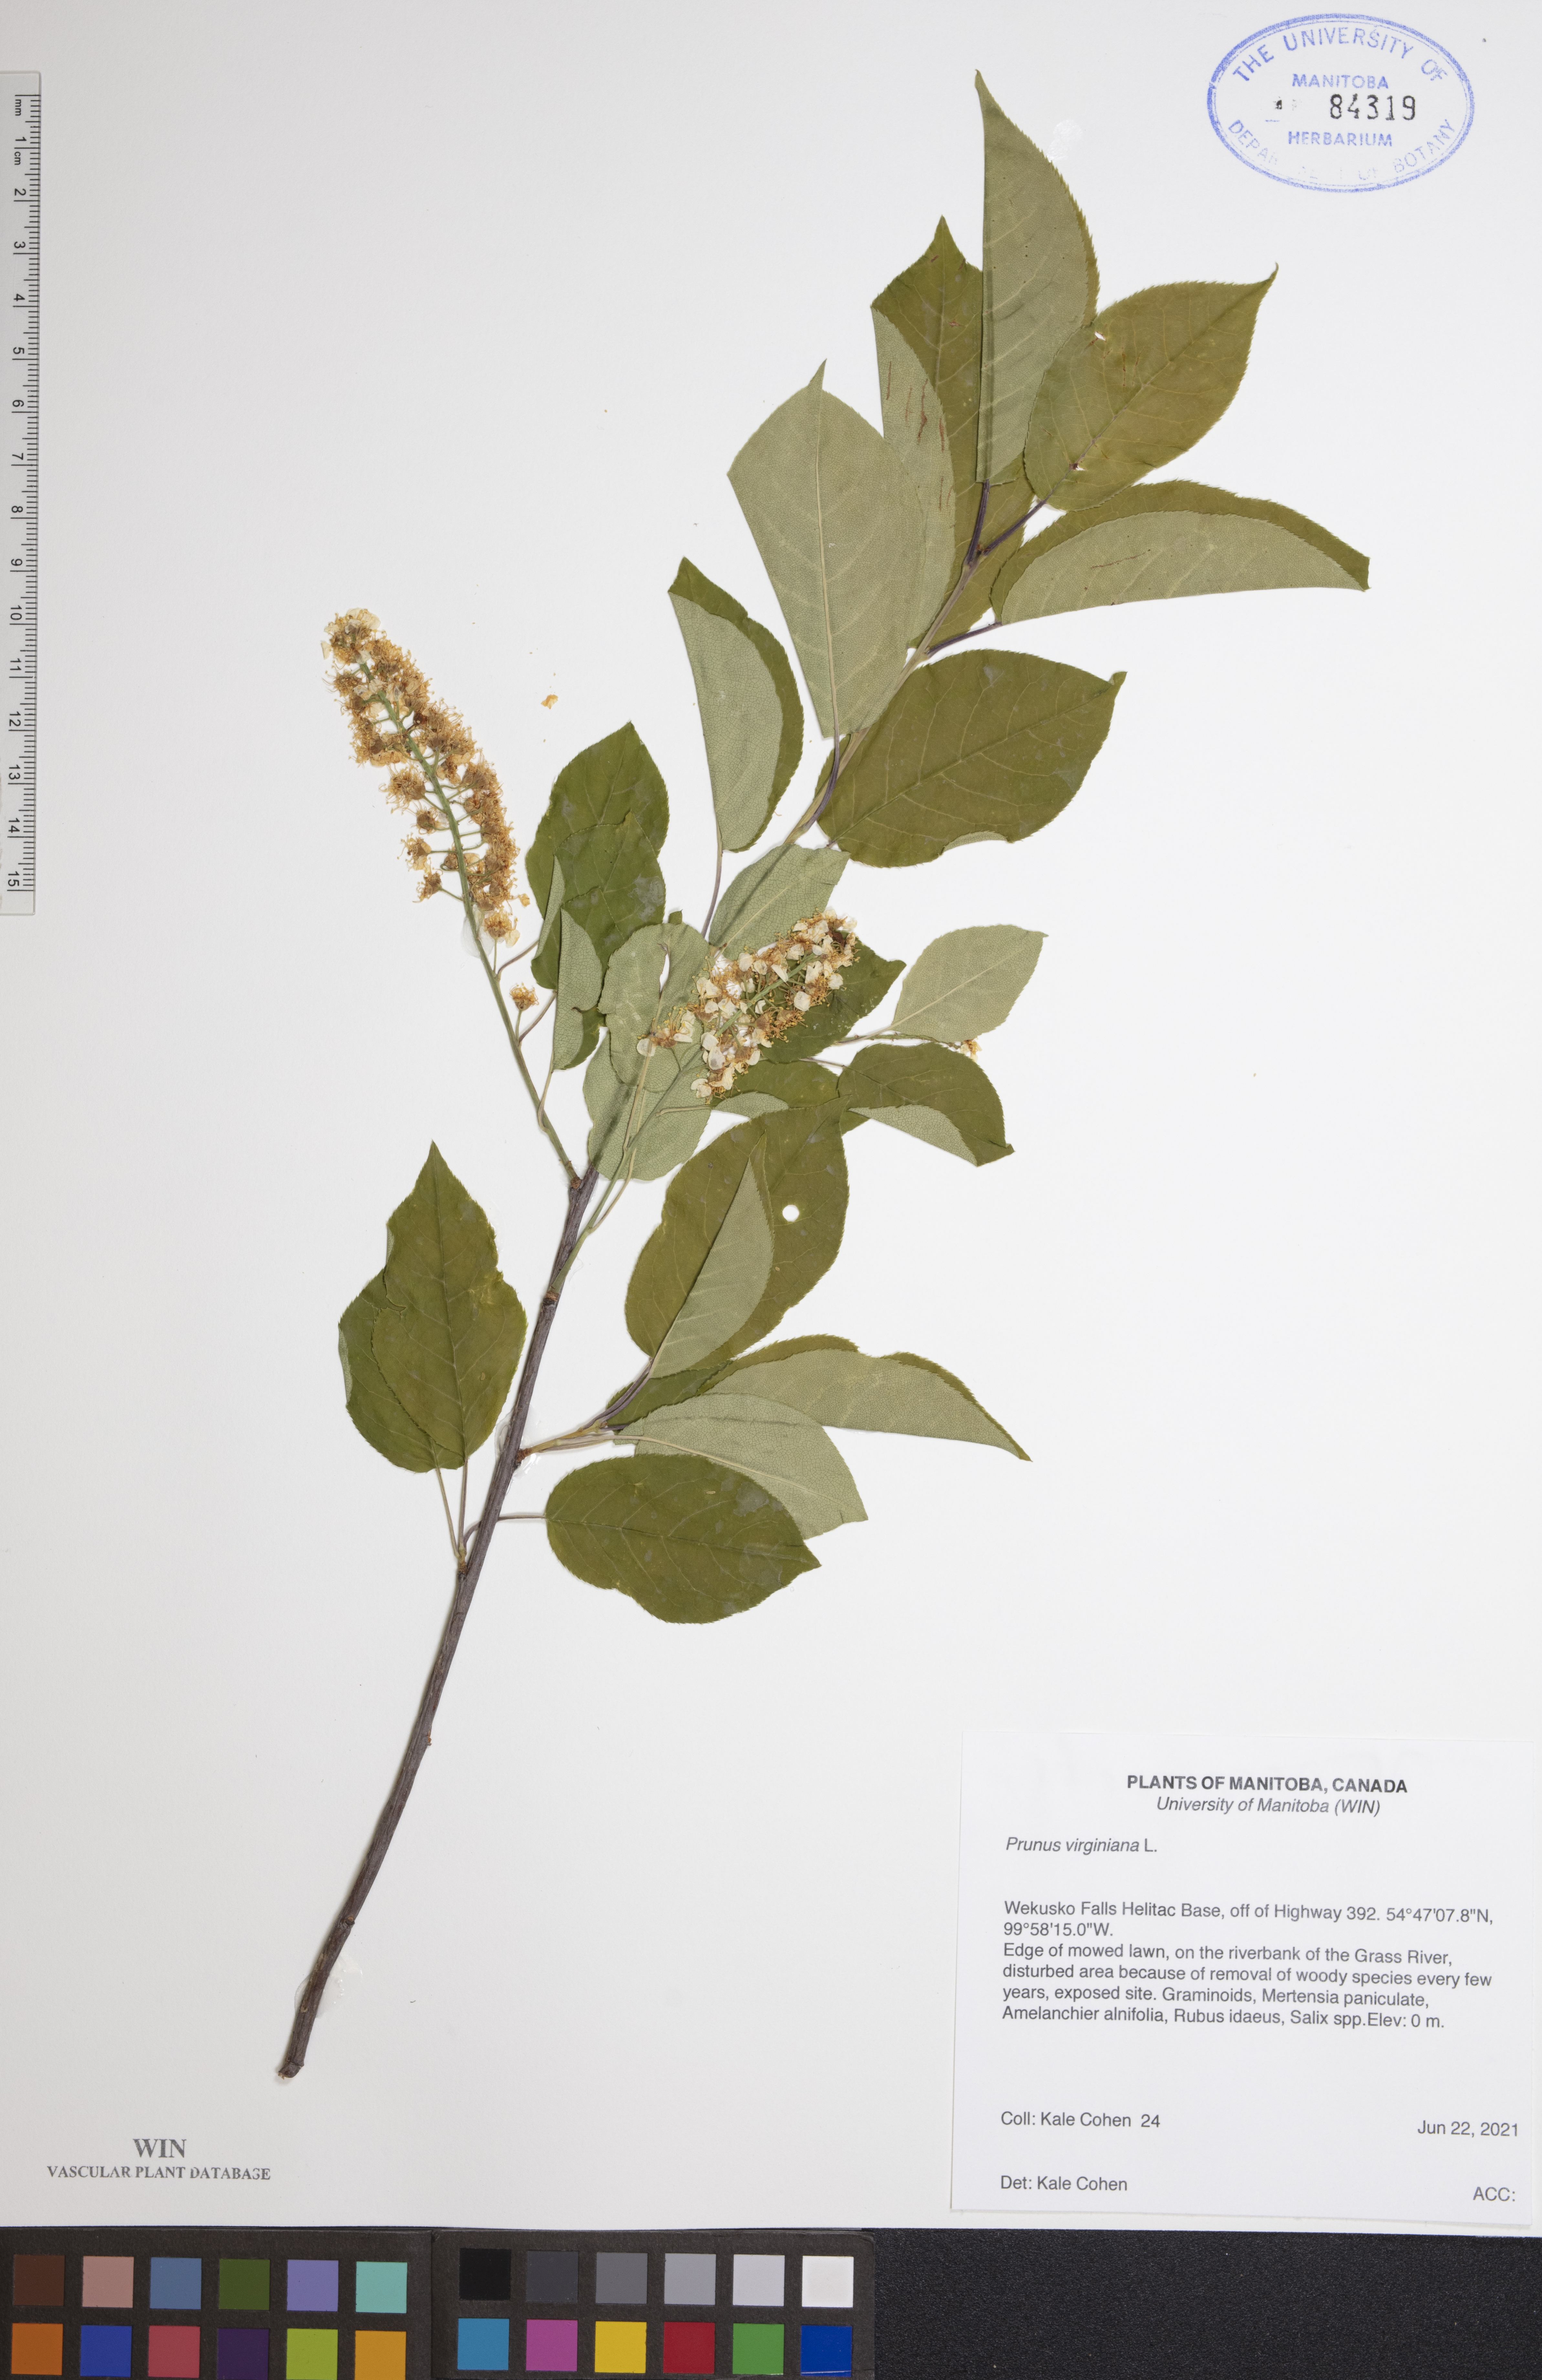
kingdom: Plantae
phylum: Tracheophyta
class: Magnoliopsida
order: Rosales
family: Rosaceae
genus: Prunus
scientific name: Prunus virginiana
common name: Chokecherry
